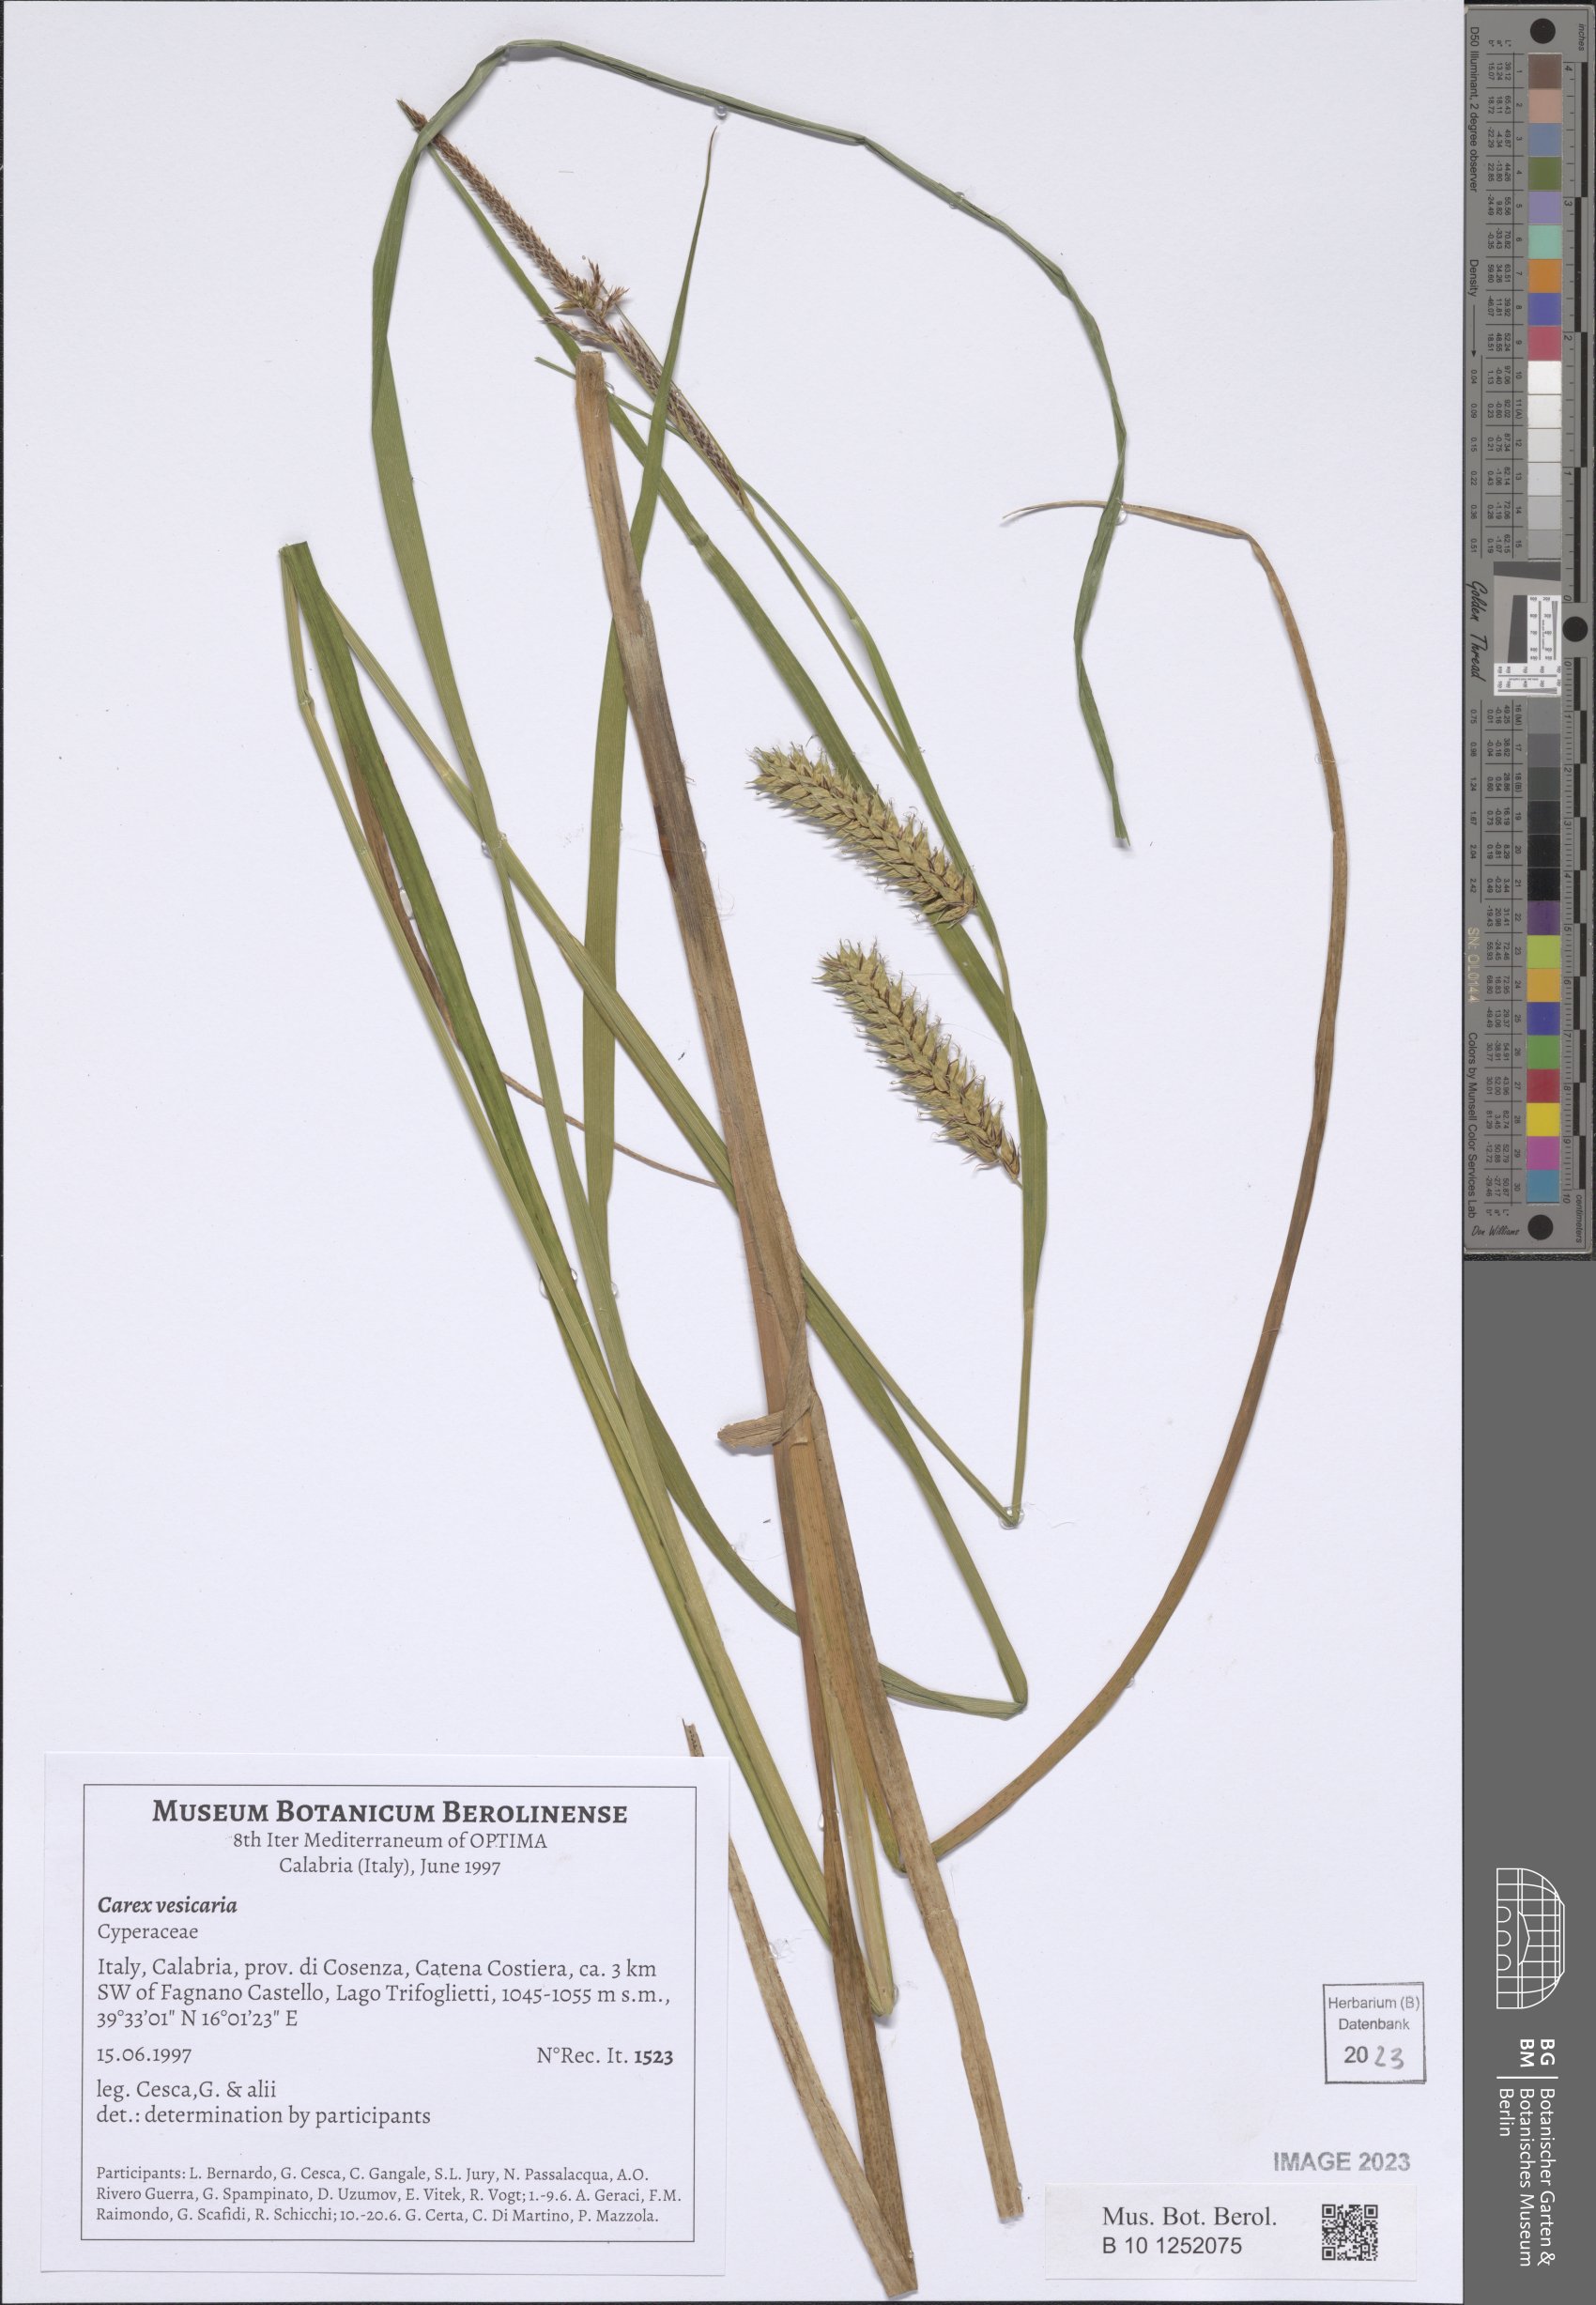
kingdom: Plantae
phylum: Tracheophyta
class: Liliopsida
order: Poales
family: Cyperaceae
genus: Carex
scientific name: Carex vesicaria
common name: Bladder-sedge
